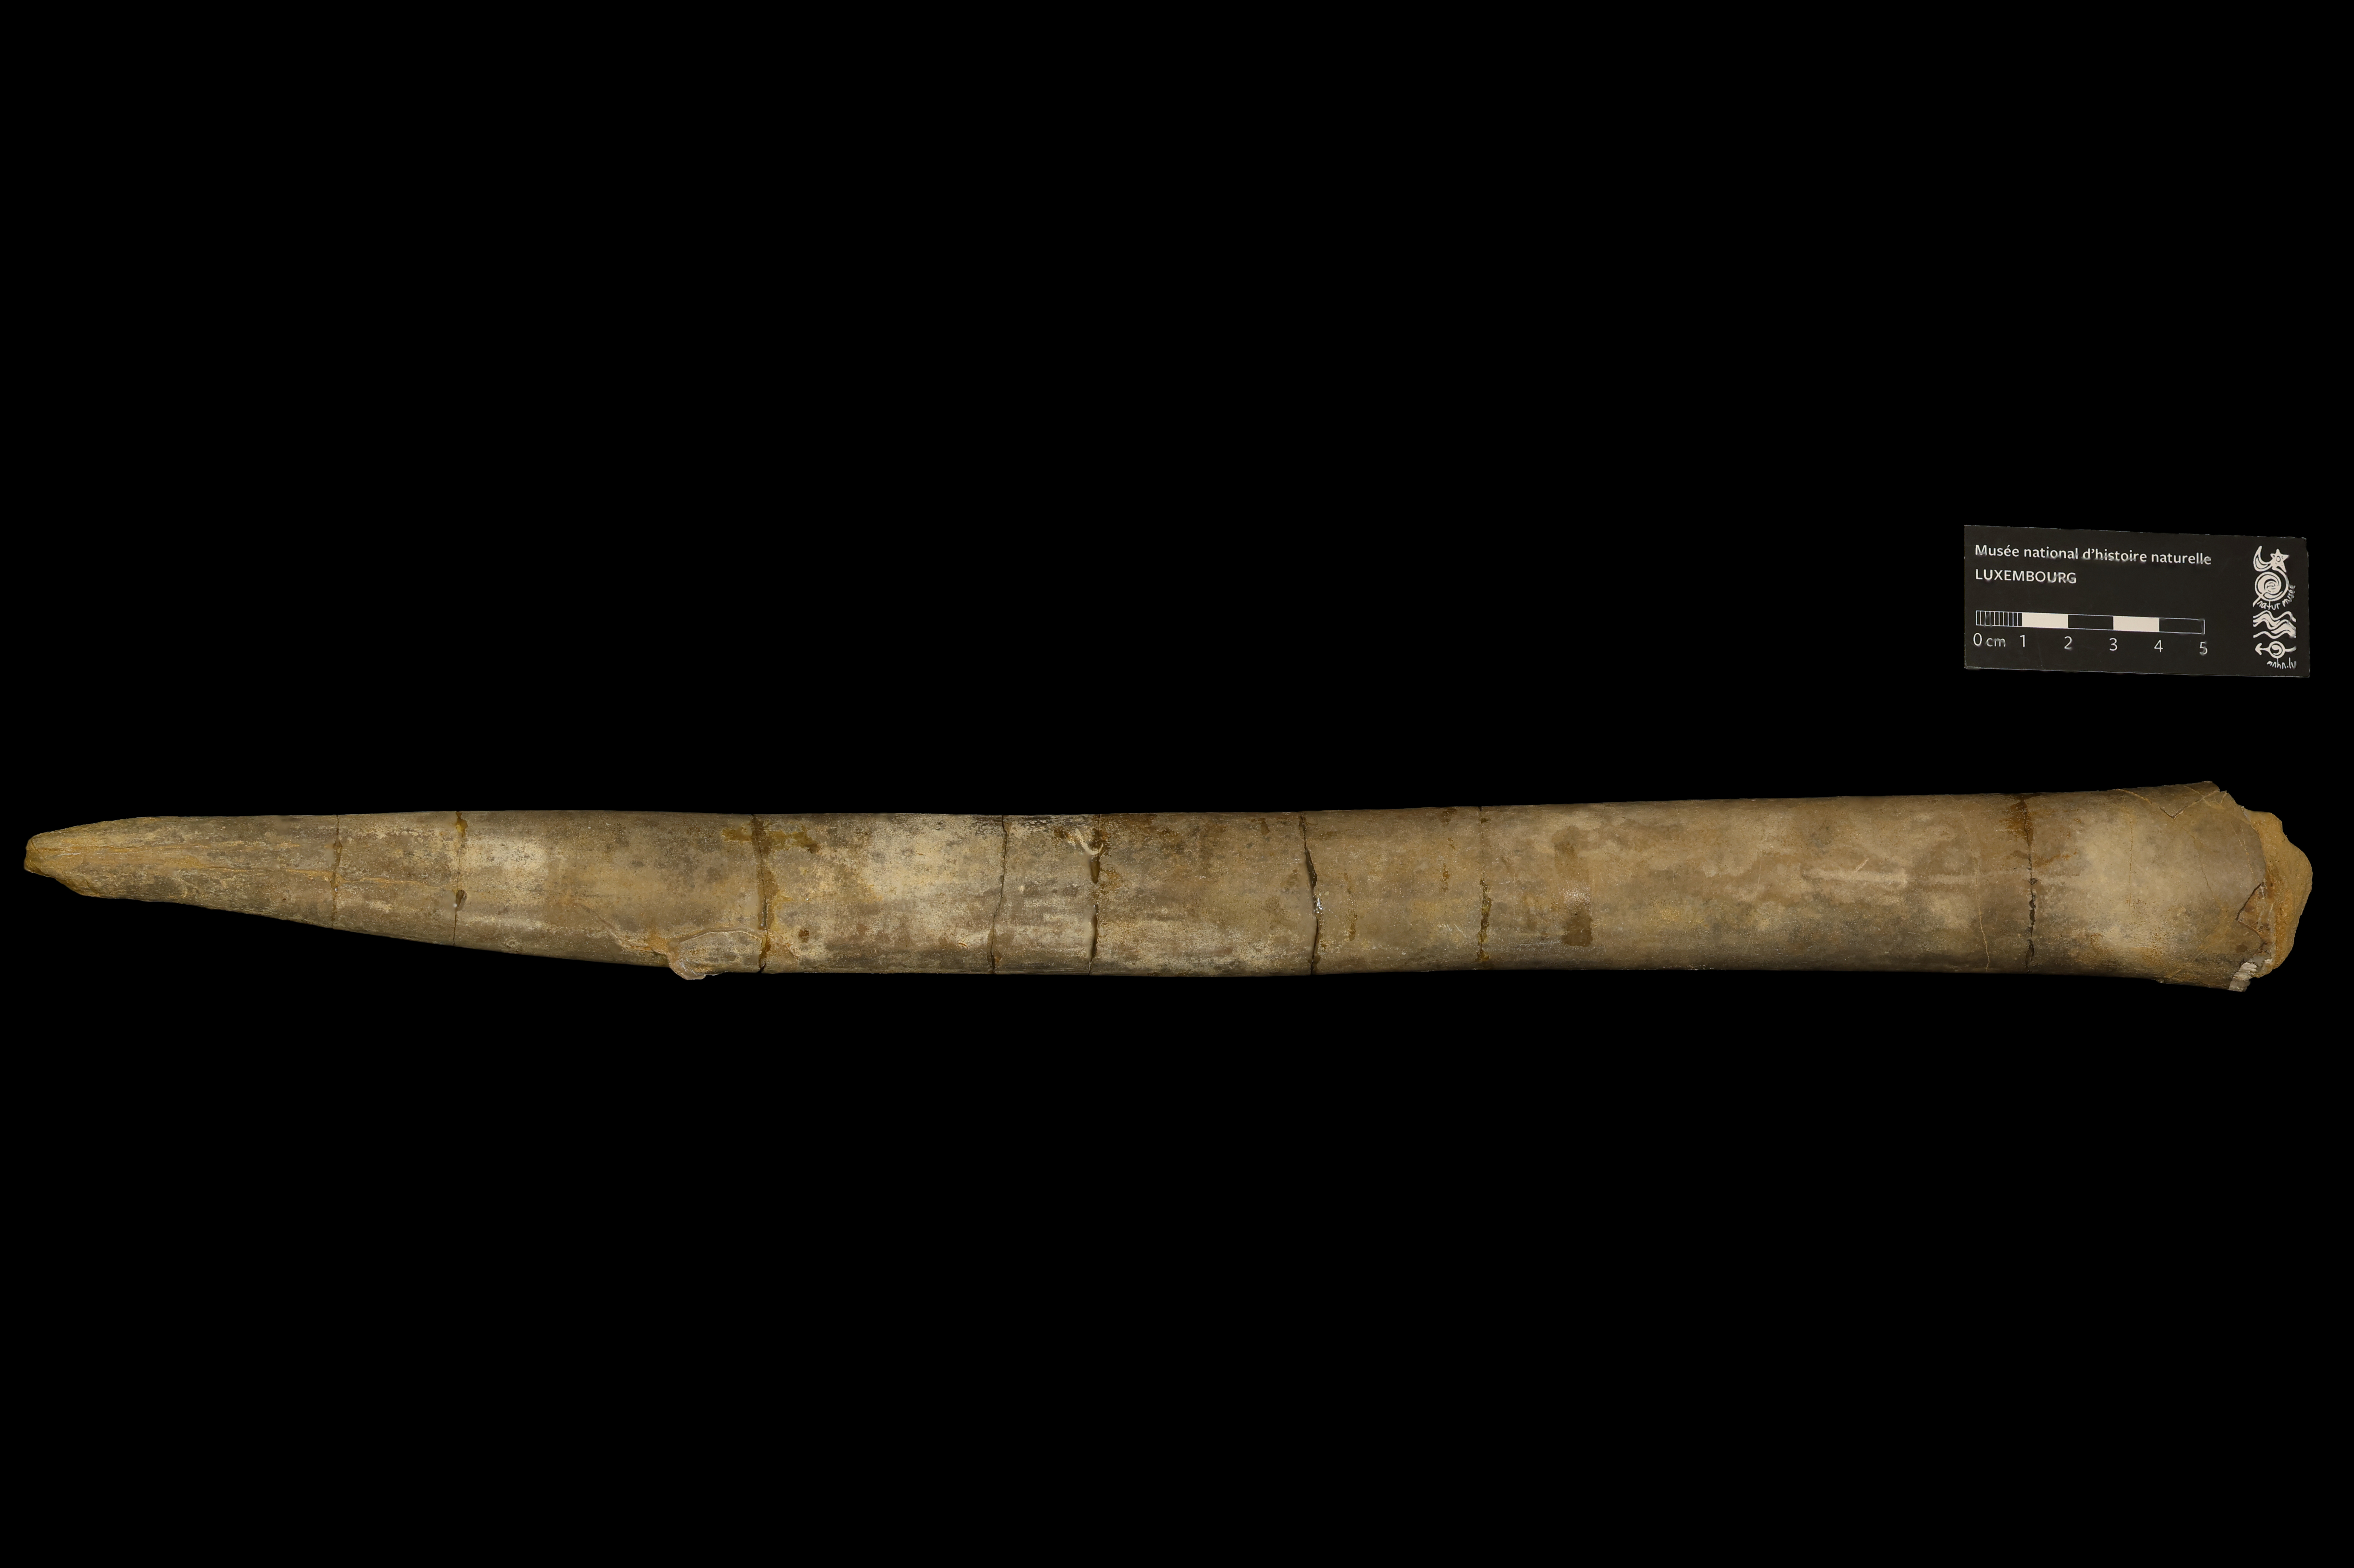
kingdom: Animalia
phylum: Mollusca
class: Cephalopoda
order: Belemnitida
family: Megateuthididae
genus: Megateuthis
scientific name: Megateuthis
